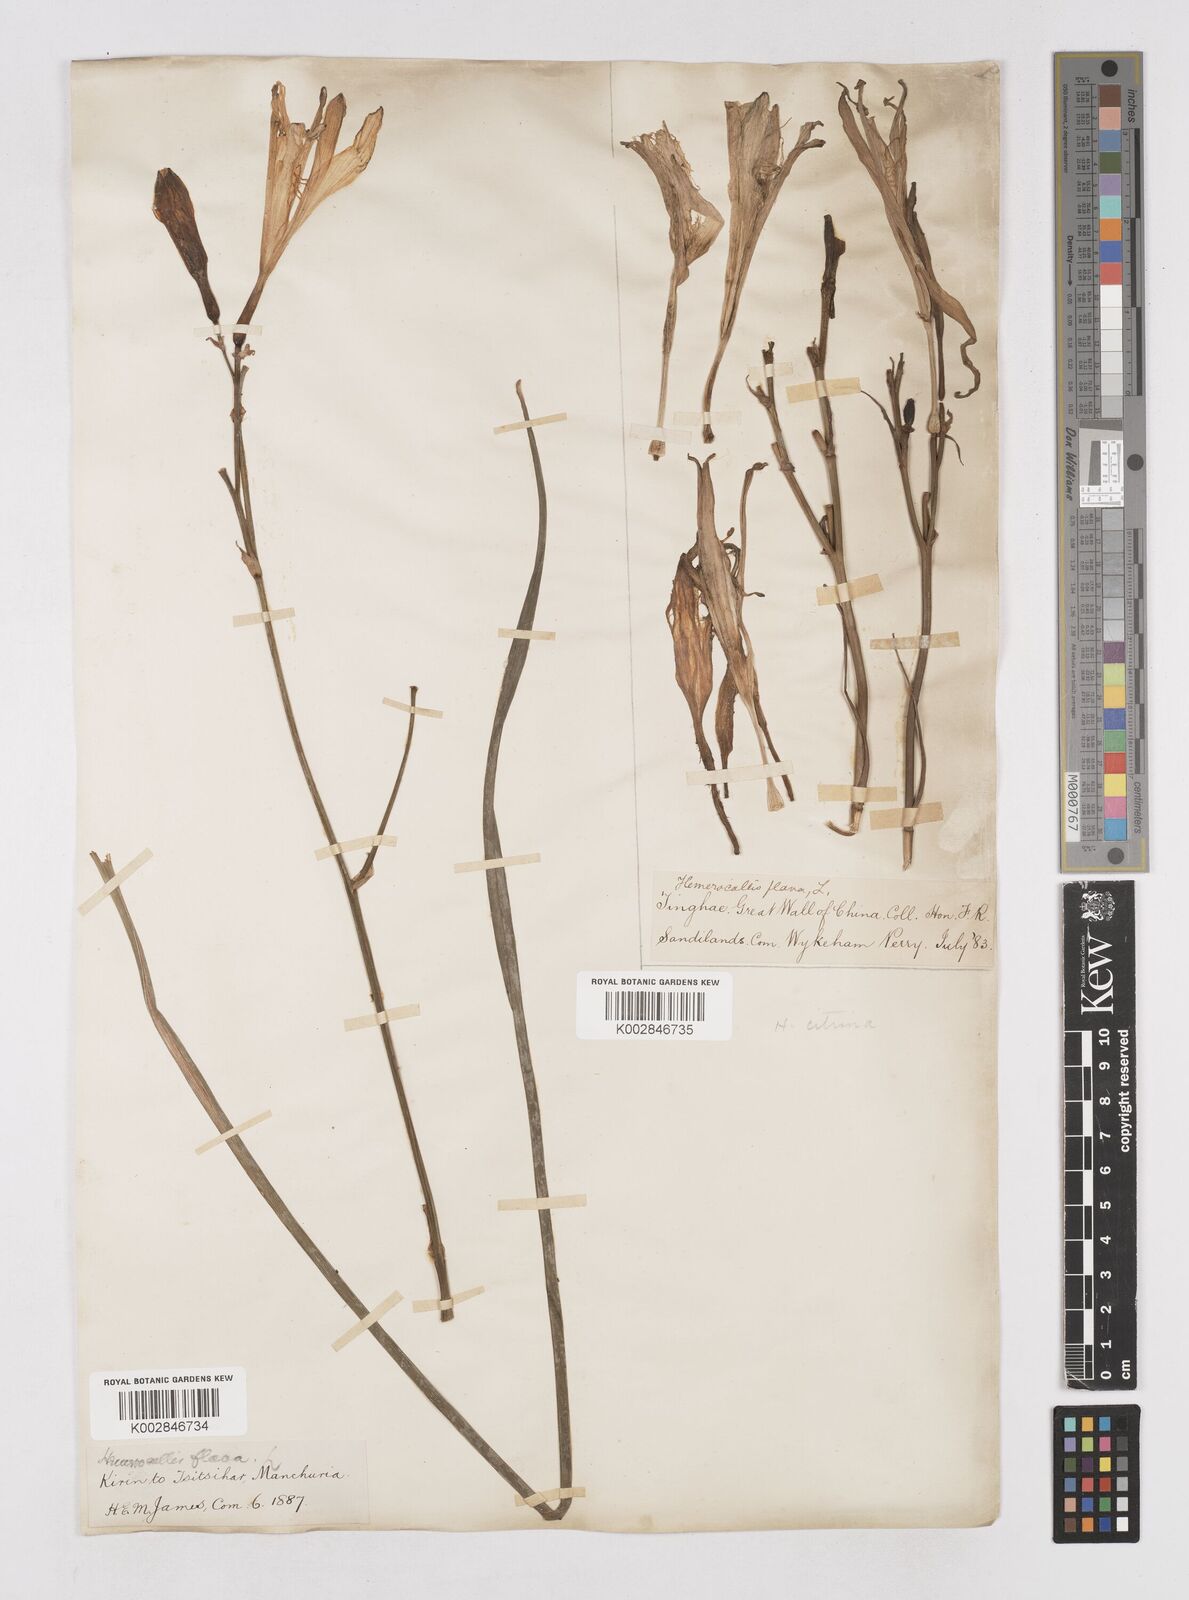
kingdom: Plantae
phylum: Tracheophyta
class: Liliopsida
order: Asparagales
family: Asphodelaceae
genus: Hemerocallis
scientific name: Hemerocallis
